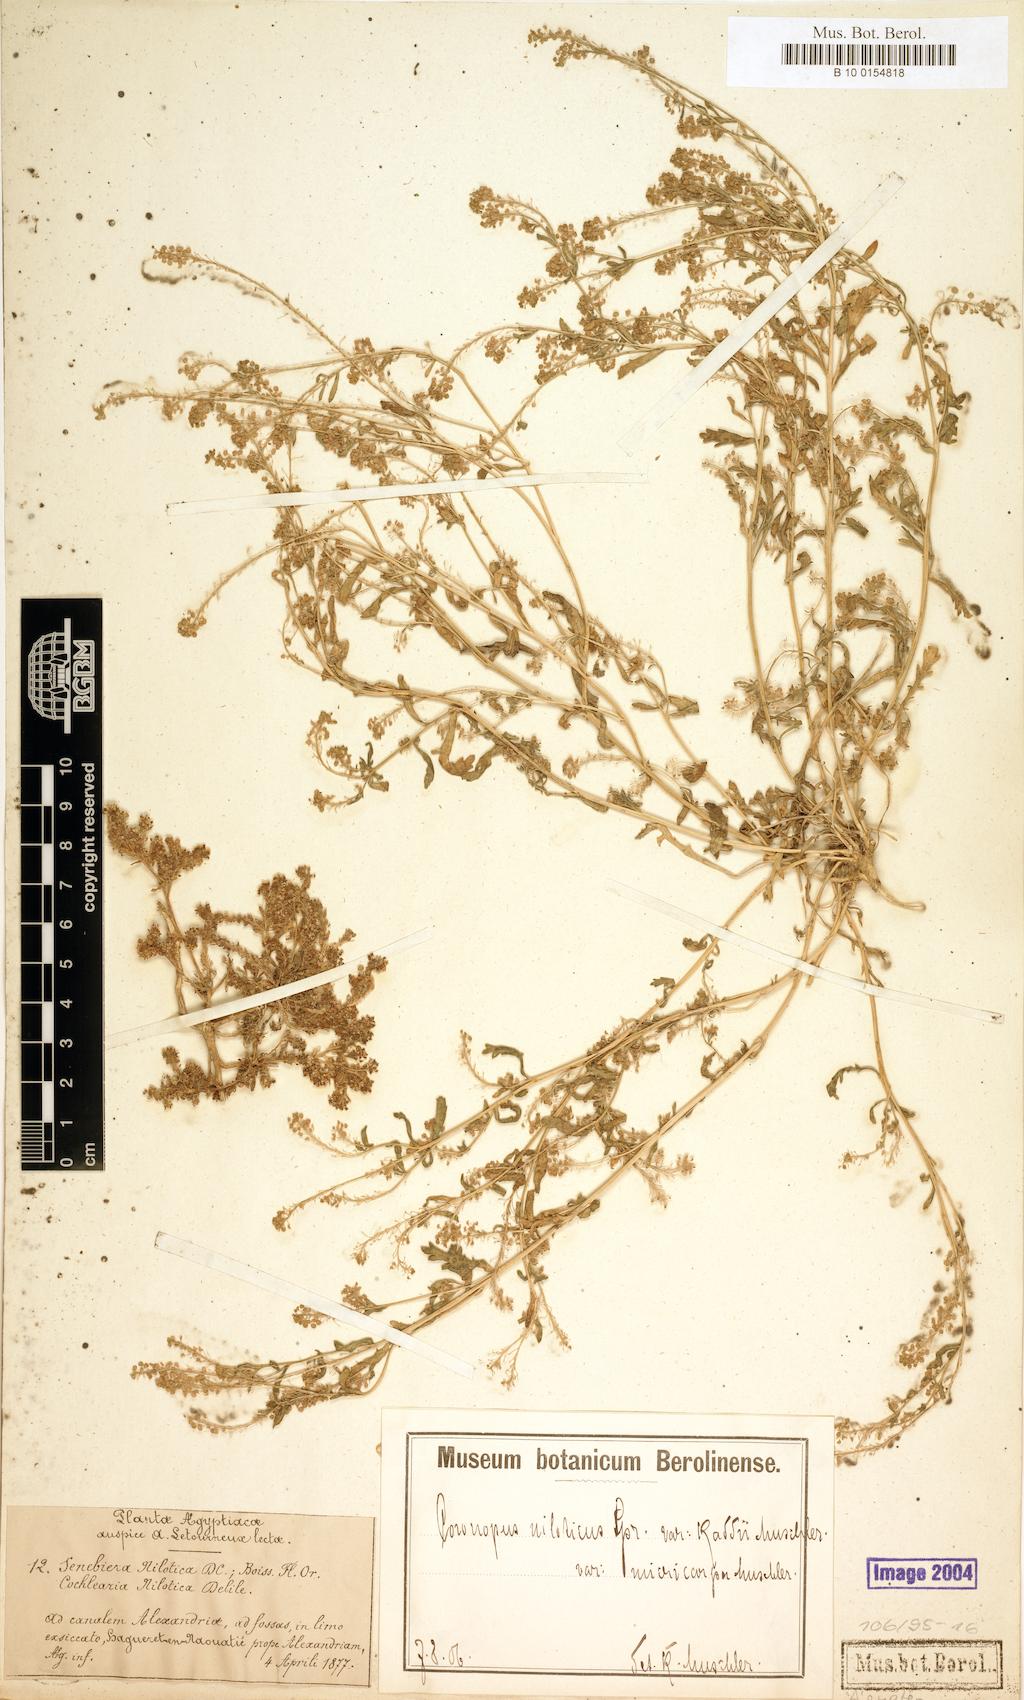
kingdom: Plantae
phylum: Tracheophyta
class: Magnoliopsida
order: Brassicales
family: Brassicaceae
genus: Lepidium
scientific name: Lepidium niloticum
